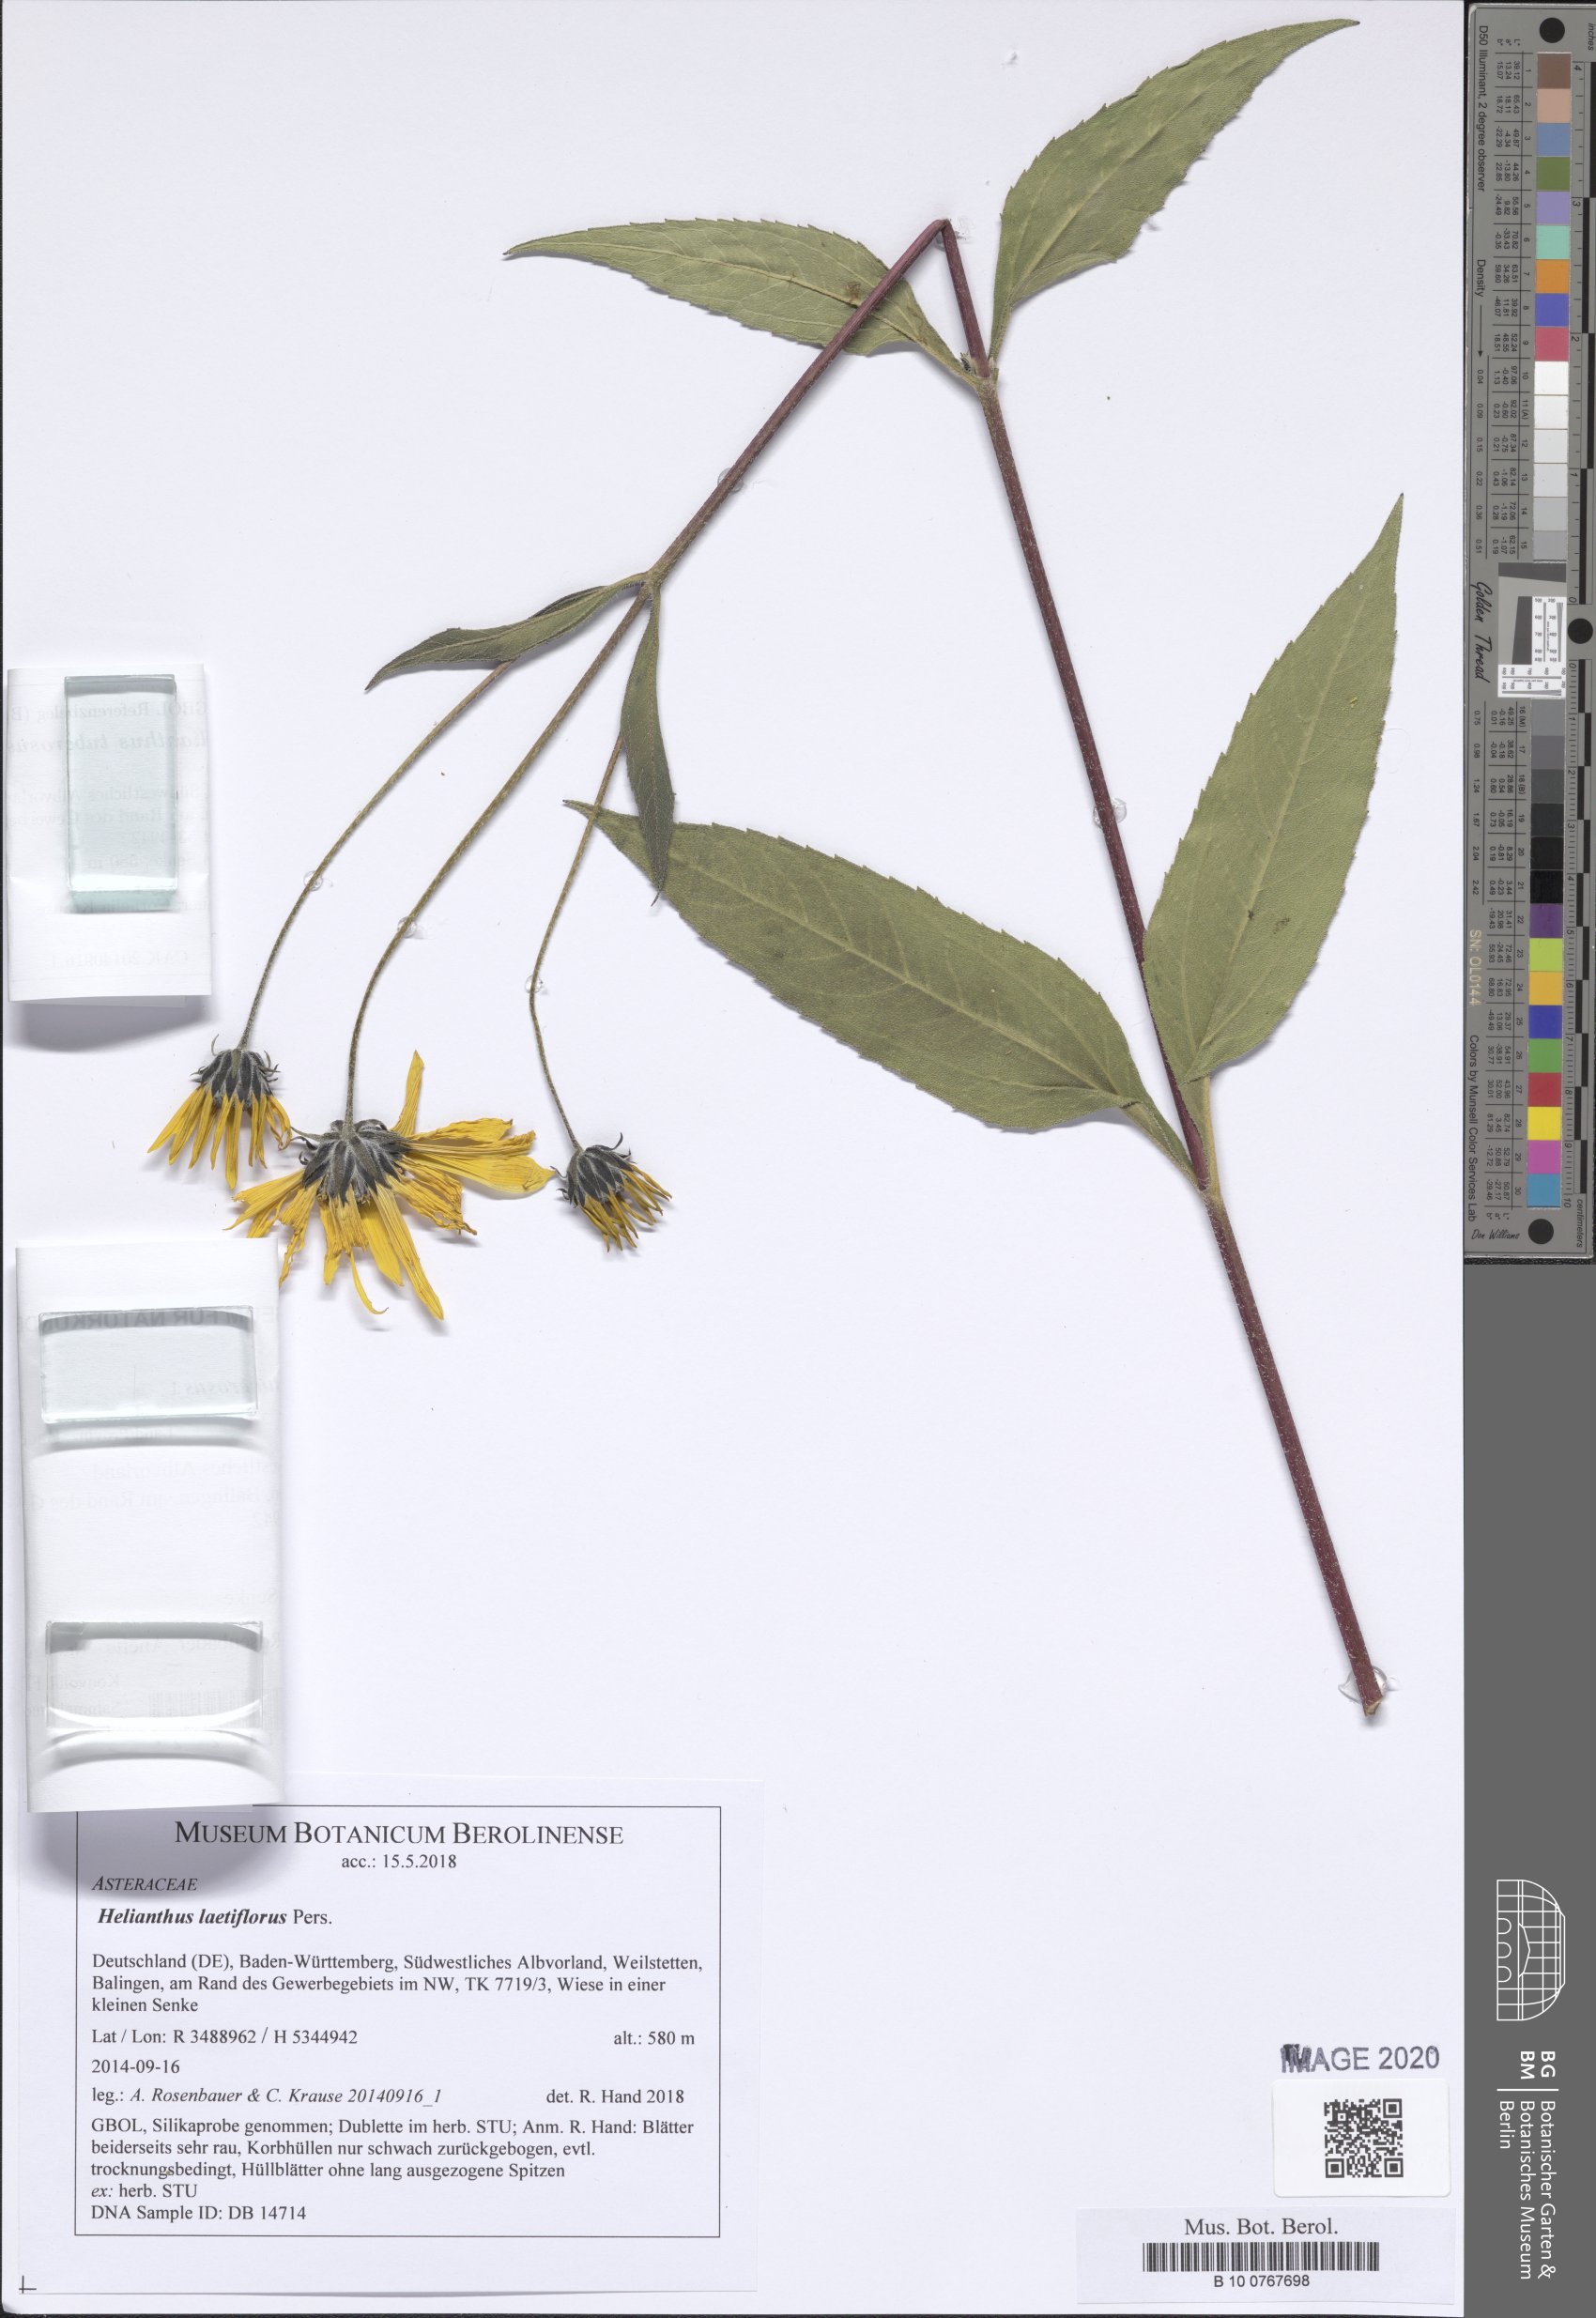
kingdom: Plantae
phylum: Tracheophyta
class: Magnoliopsida
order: Asterales
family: Asteraceae
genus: Helianthus
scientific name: Helianthus laetiflorus
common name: Perennial sunflower
